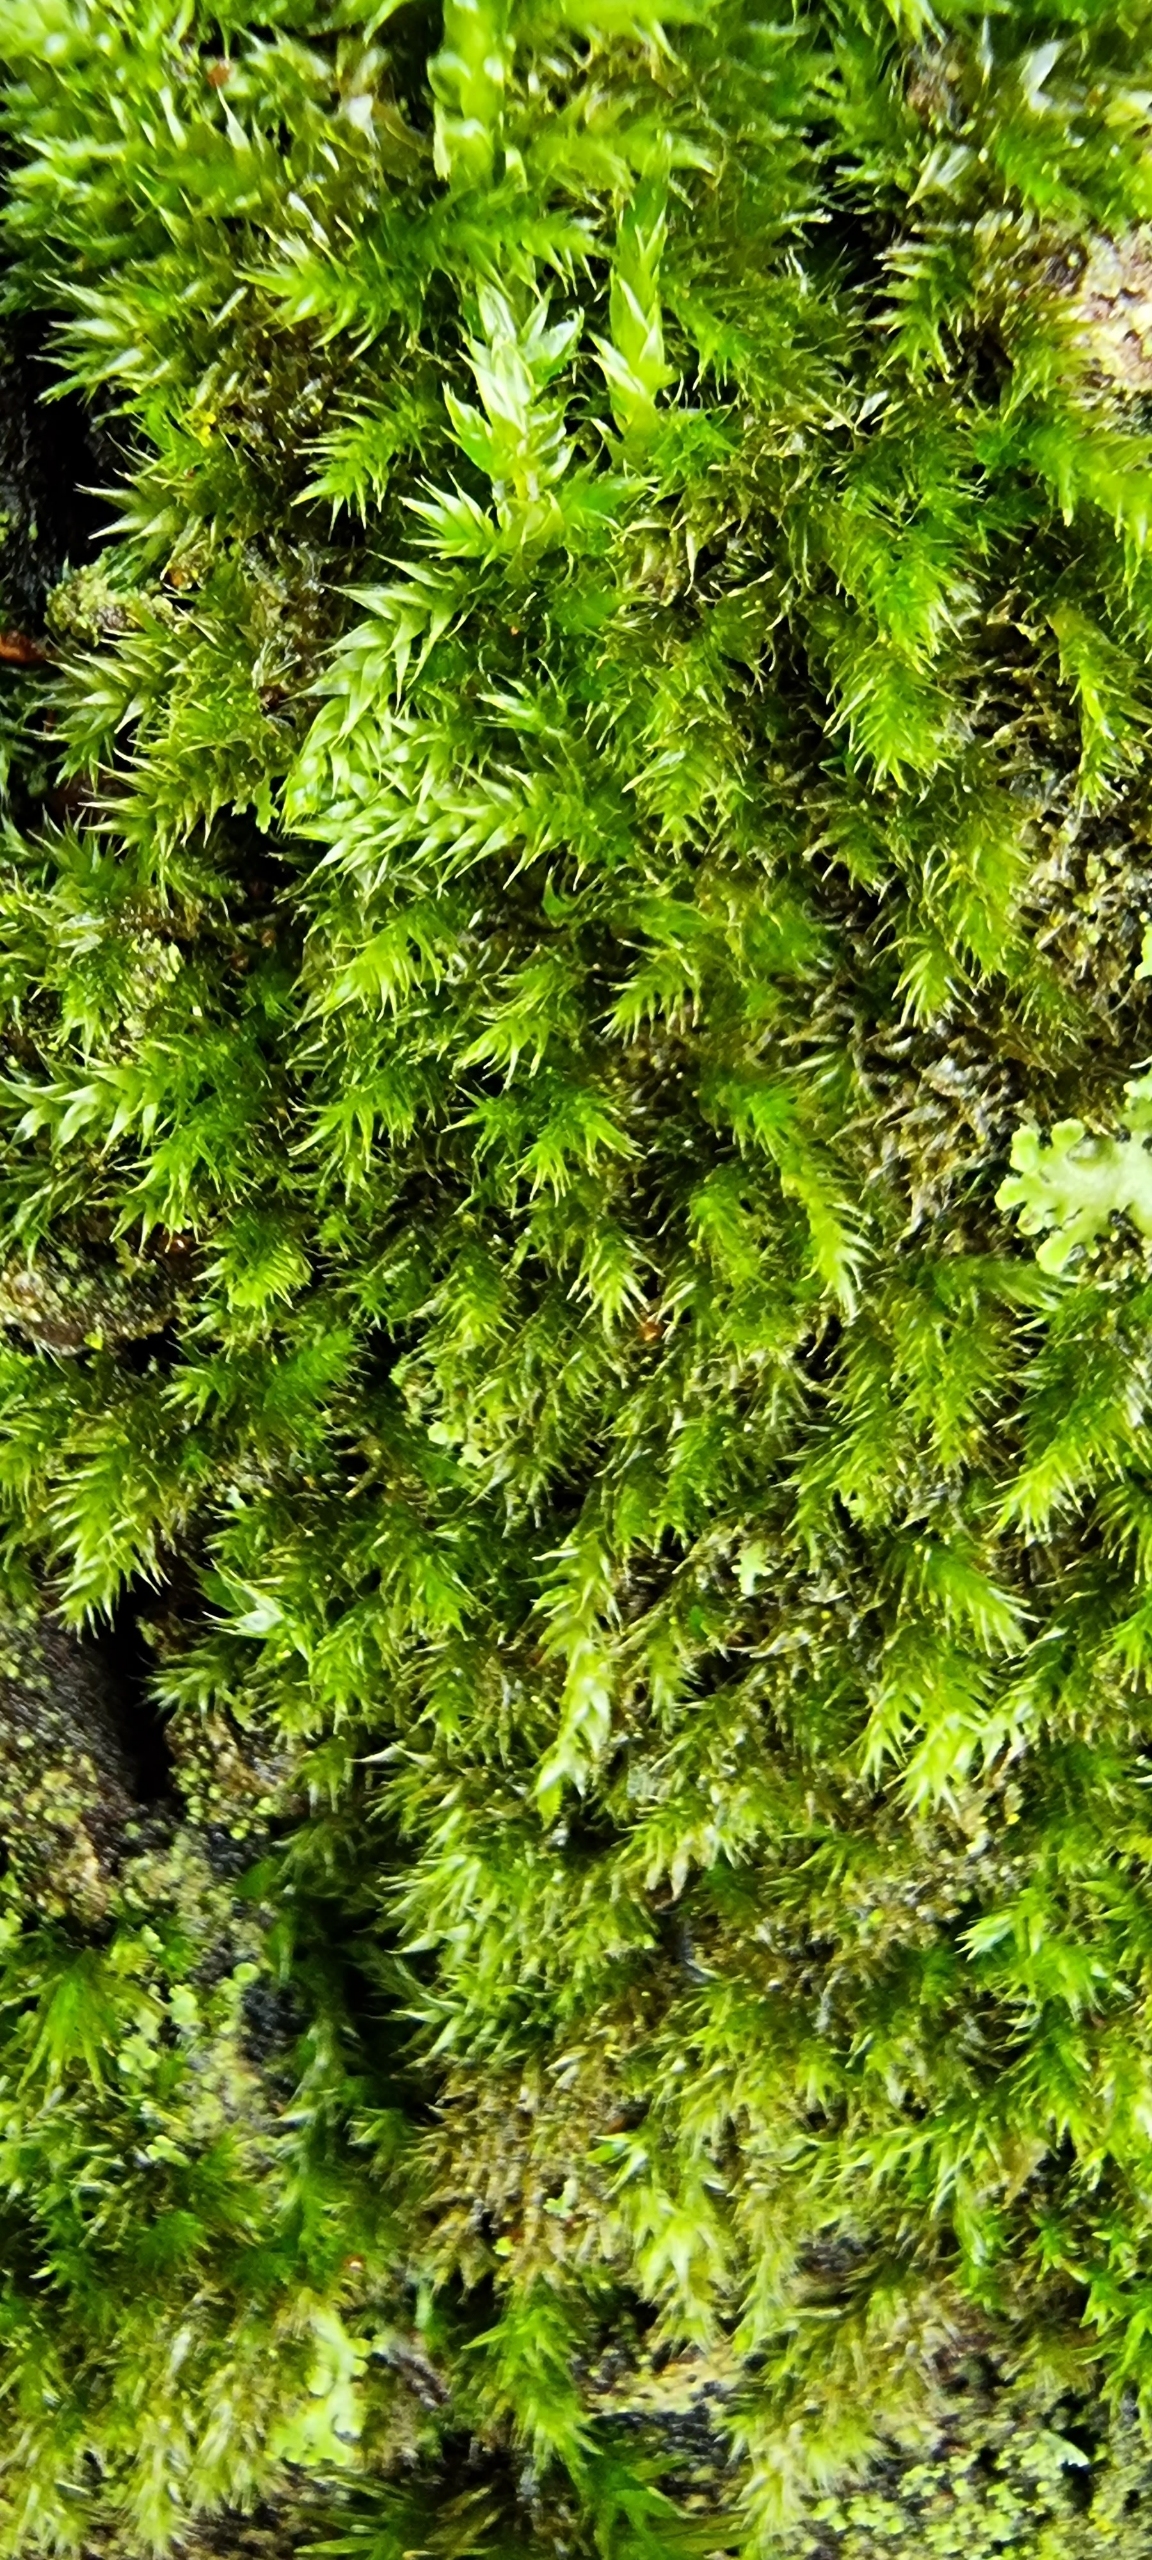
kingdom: Plantae
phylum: Bryophyta
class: Bryopsida
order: Hypnales
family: Hypnaceae
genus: Hypnum
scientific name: Hypnum cupressiforme
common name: Almindelig cypresmos
